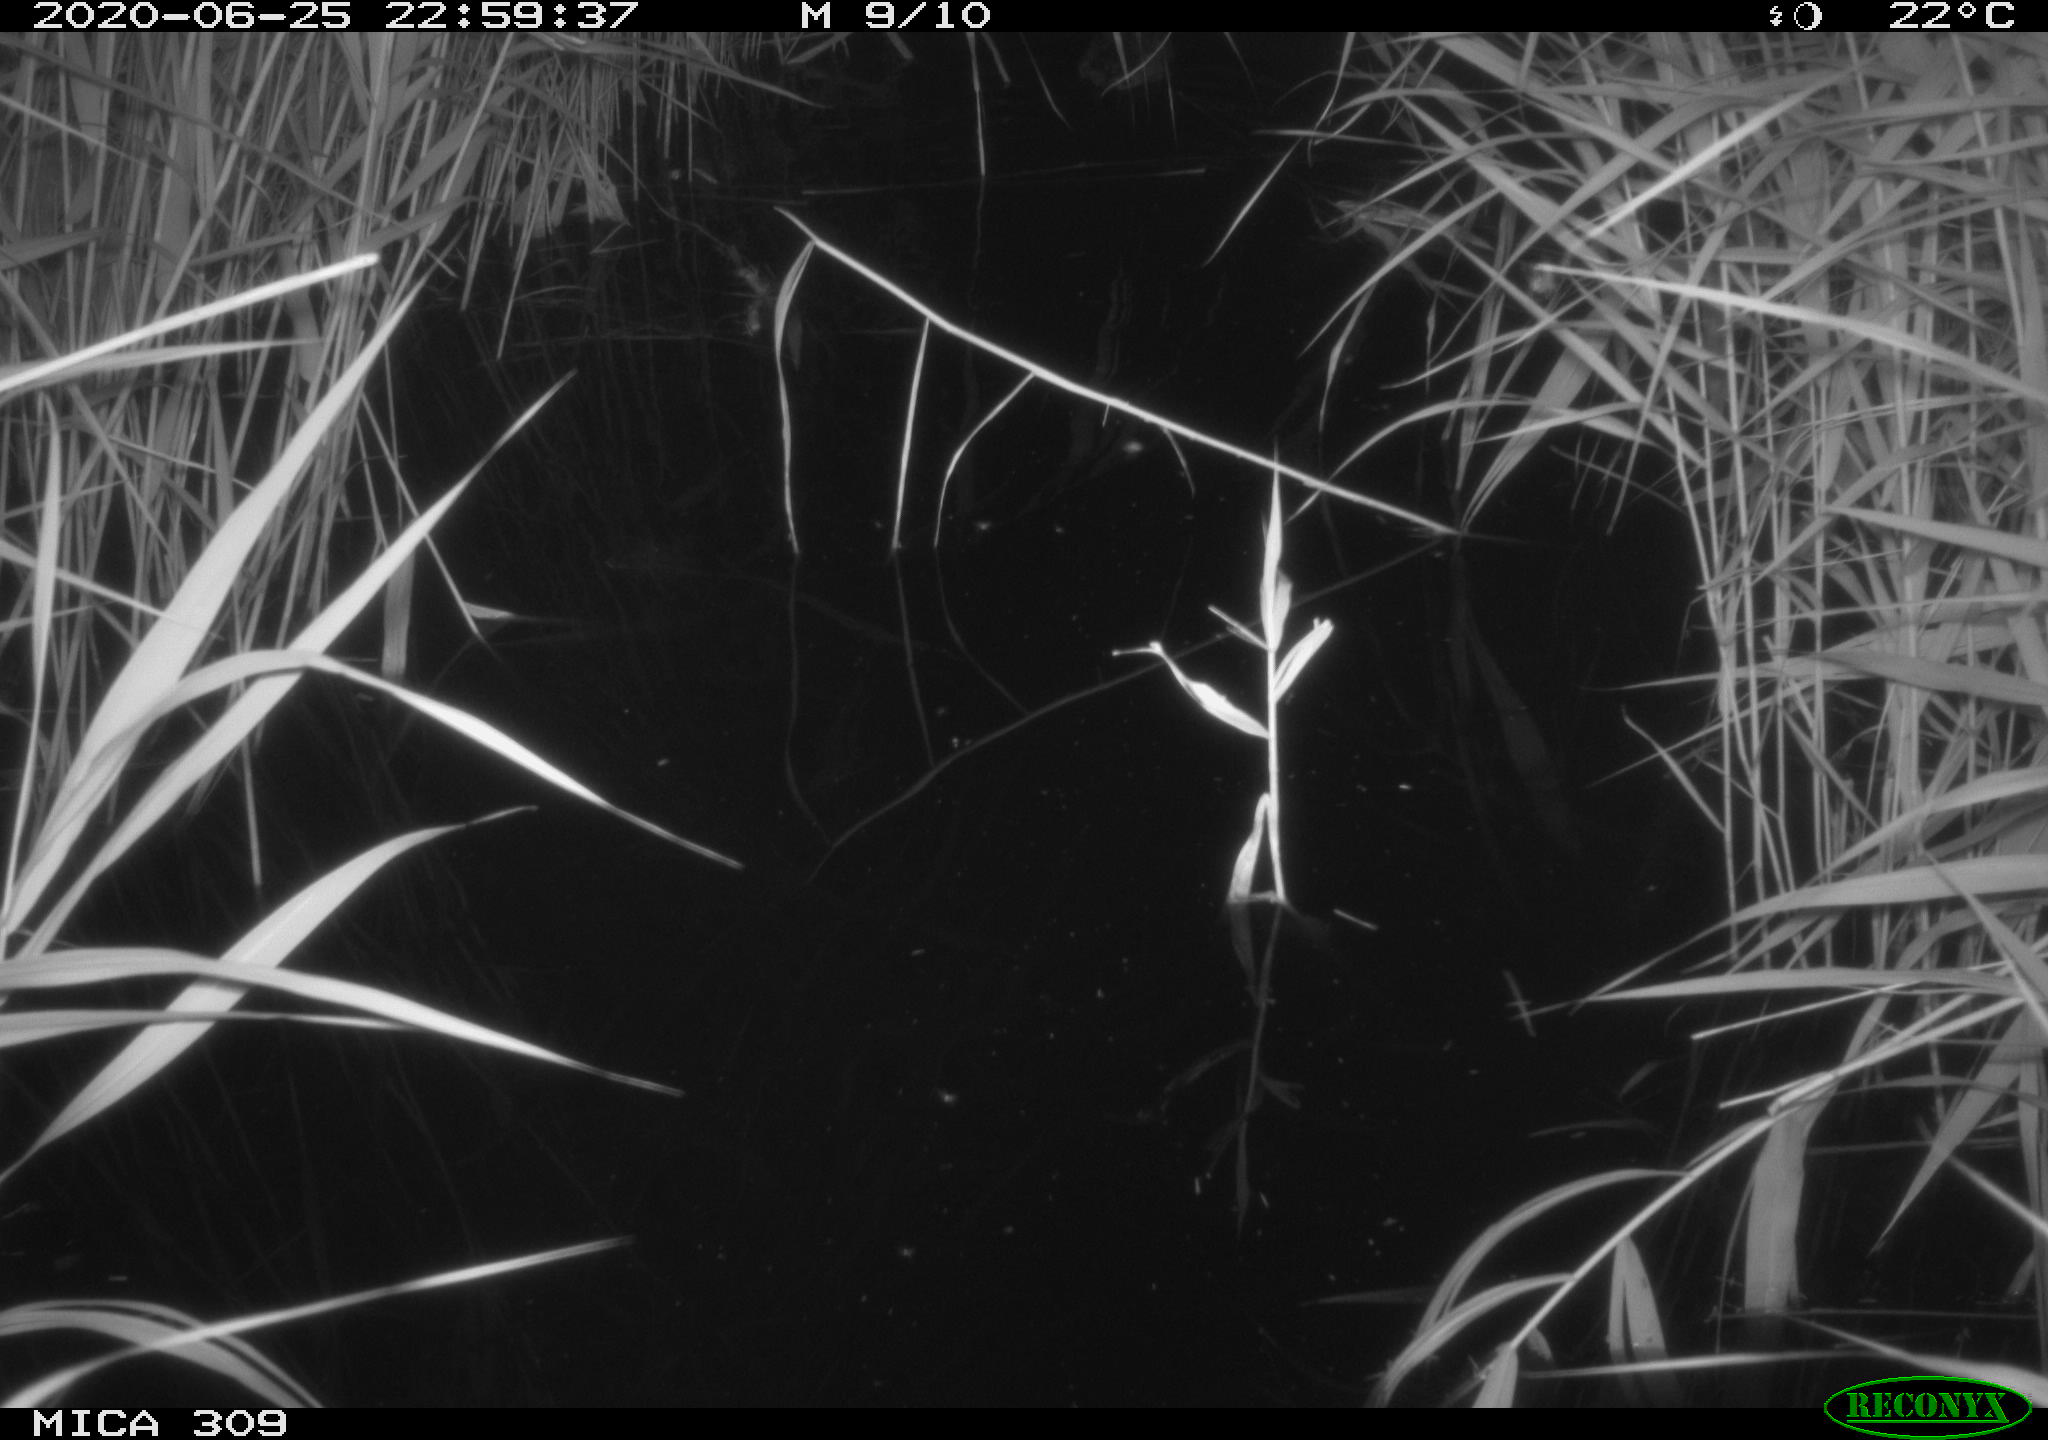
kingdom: Animalia
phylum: Chordata
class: Aves
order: Anseriformes
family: Anatidae
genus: Anas
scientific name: Anas platyrhynchos
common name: Mallard
